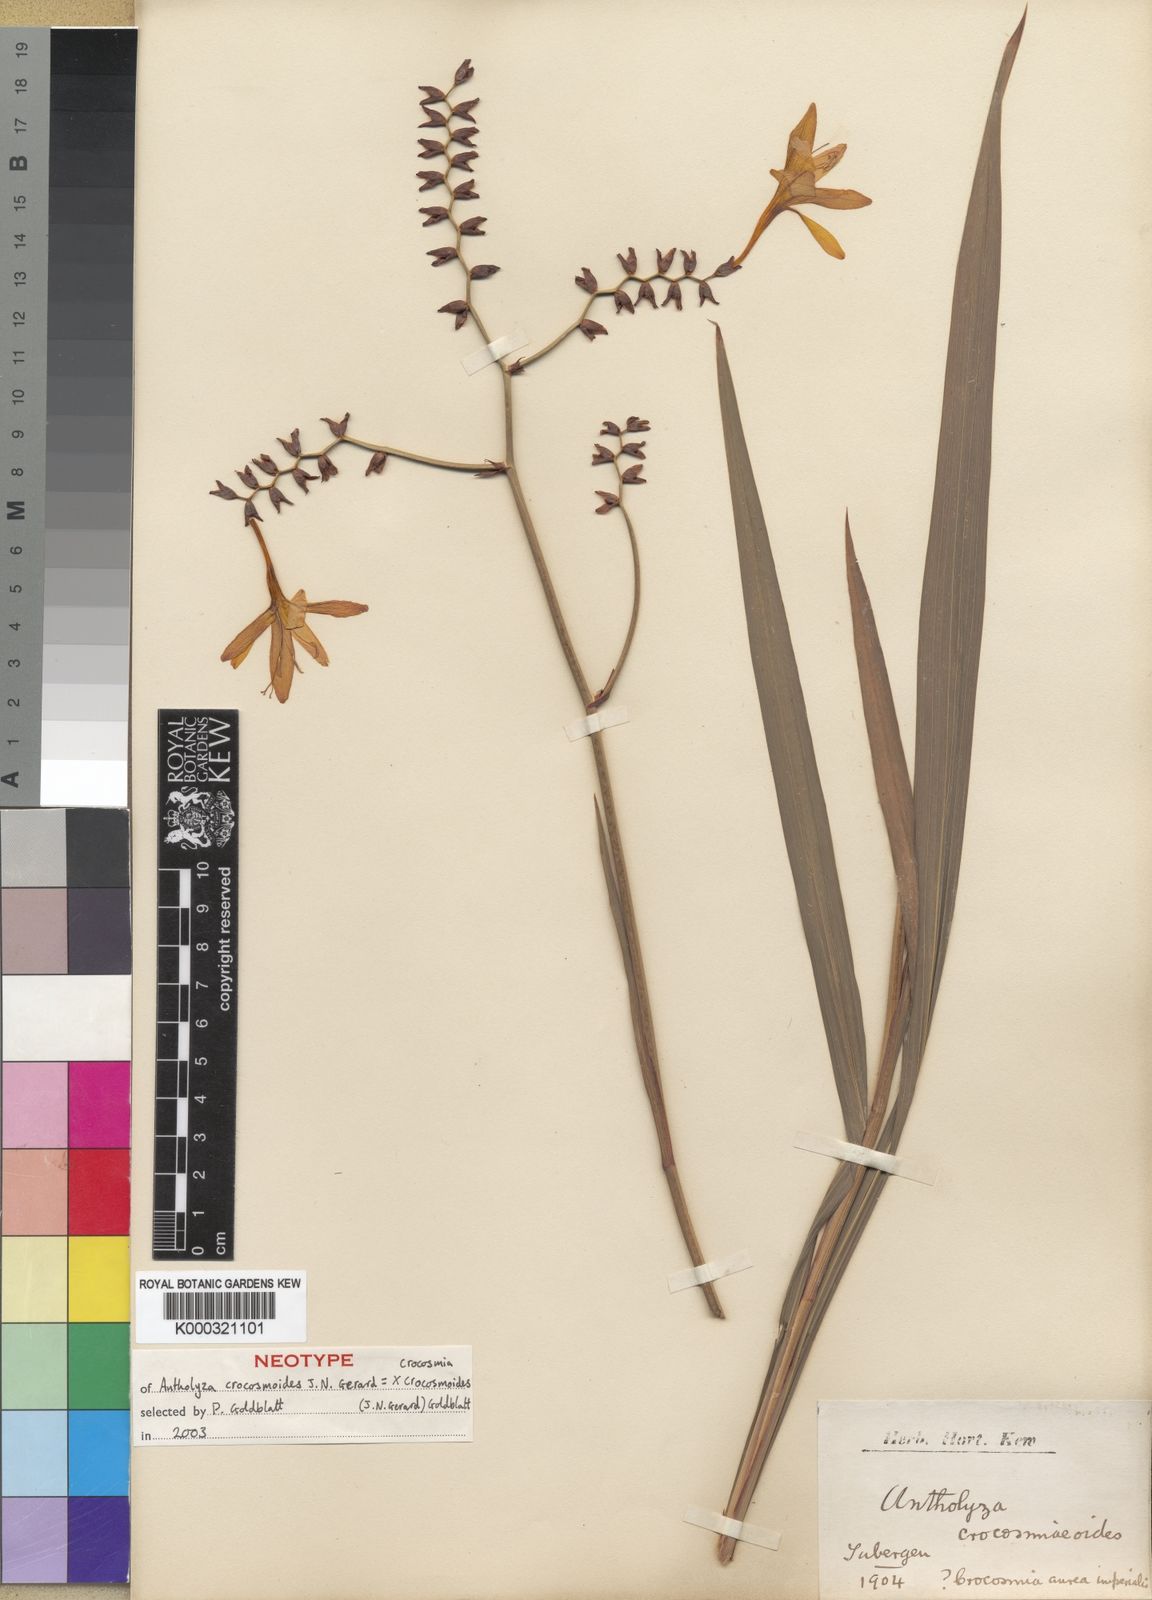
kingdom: Plantae
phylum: Tracheophyta
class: Liliopsida
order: Asparagales
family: Iridaceae
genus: Crocosmia
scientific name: Crocosmia crocosmioides
